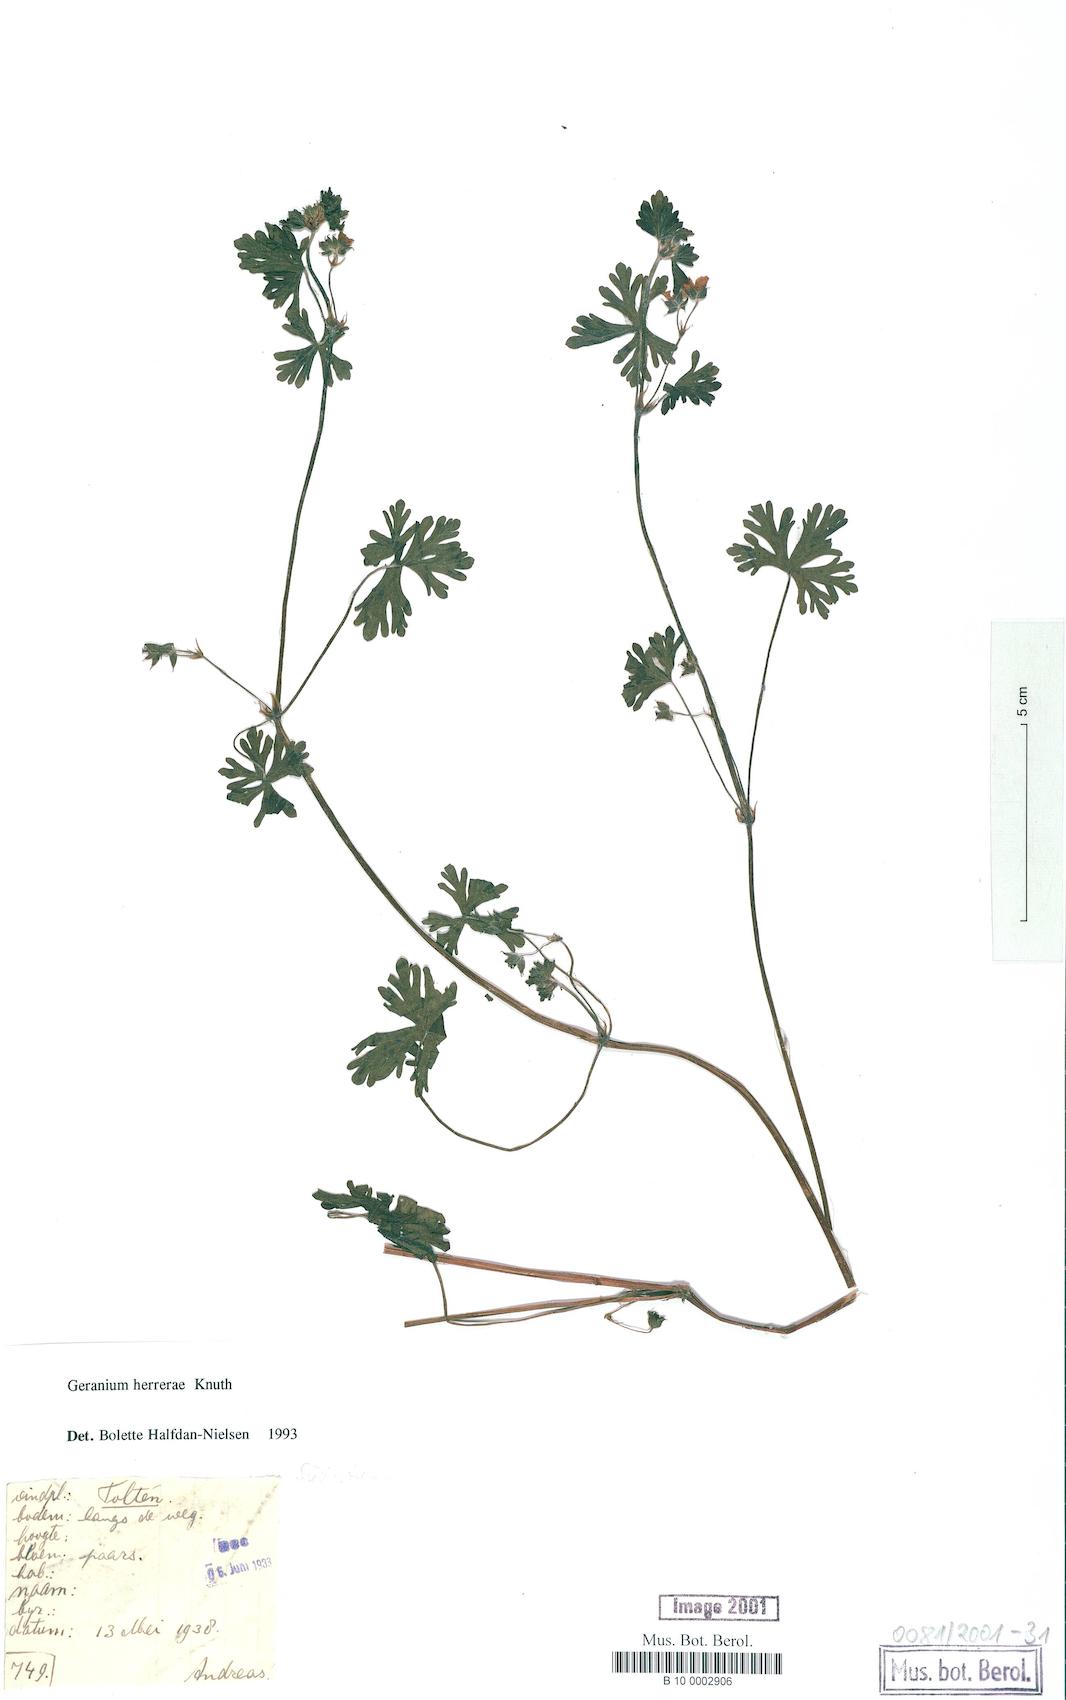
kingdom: Plantae
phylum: Tracheophyta
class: Magnoliopsida
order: Geraniales
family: Geraniaceae
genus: Geranium
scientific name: Geranium core-core
